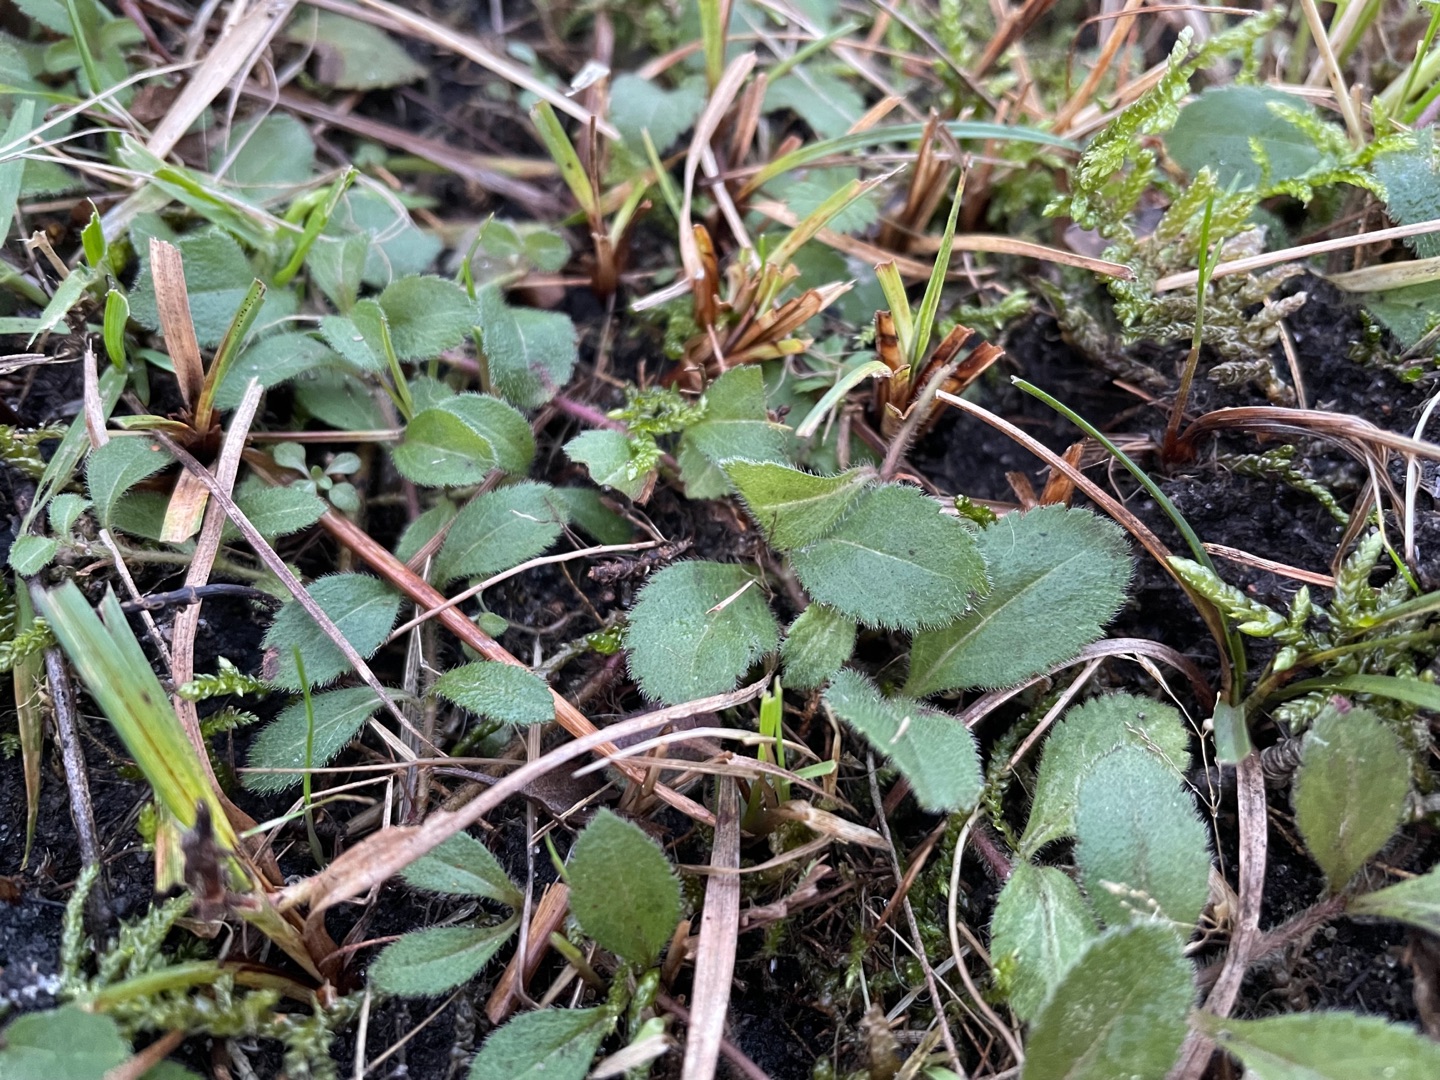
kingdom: Plantae
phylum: Tracheophyta
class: Magnoliopsida
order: Lamiales
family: Plantaginaceae
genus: Veronica
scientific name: Veronica officinalis
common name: Læge-ærenpris
